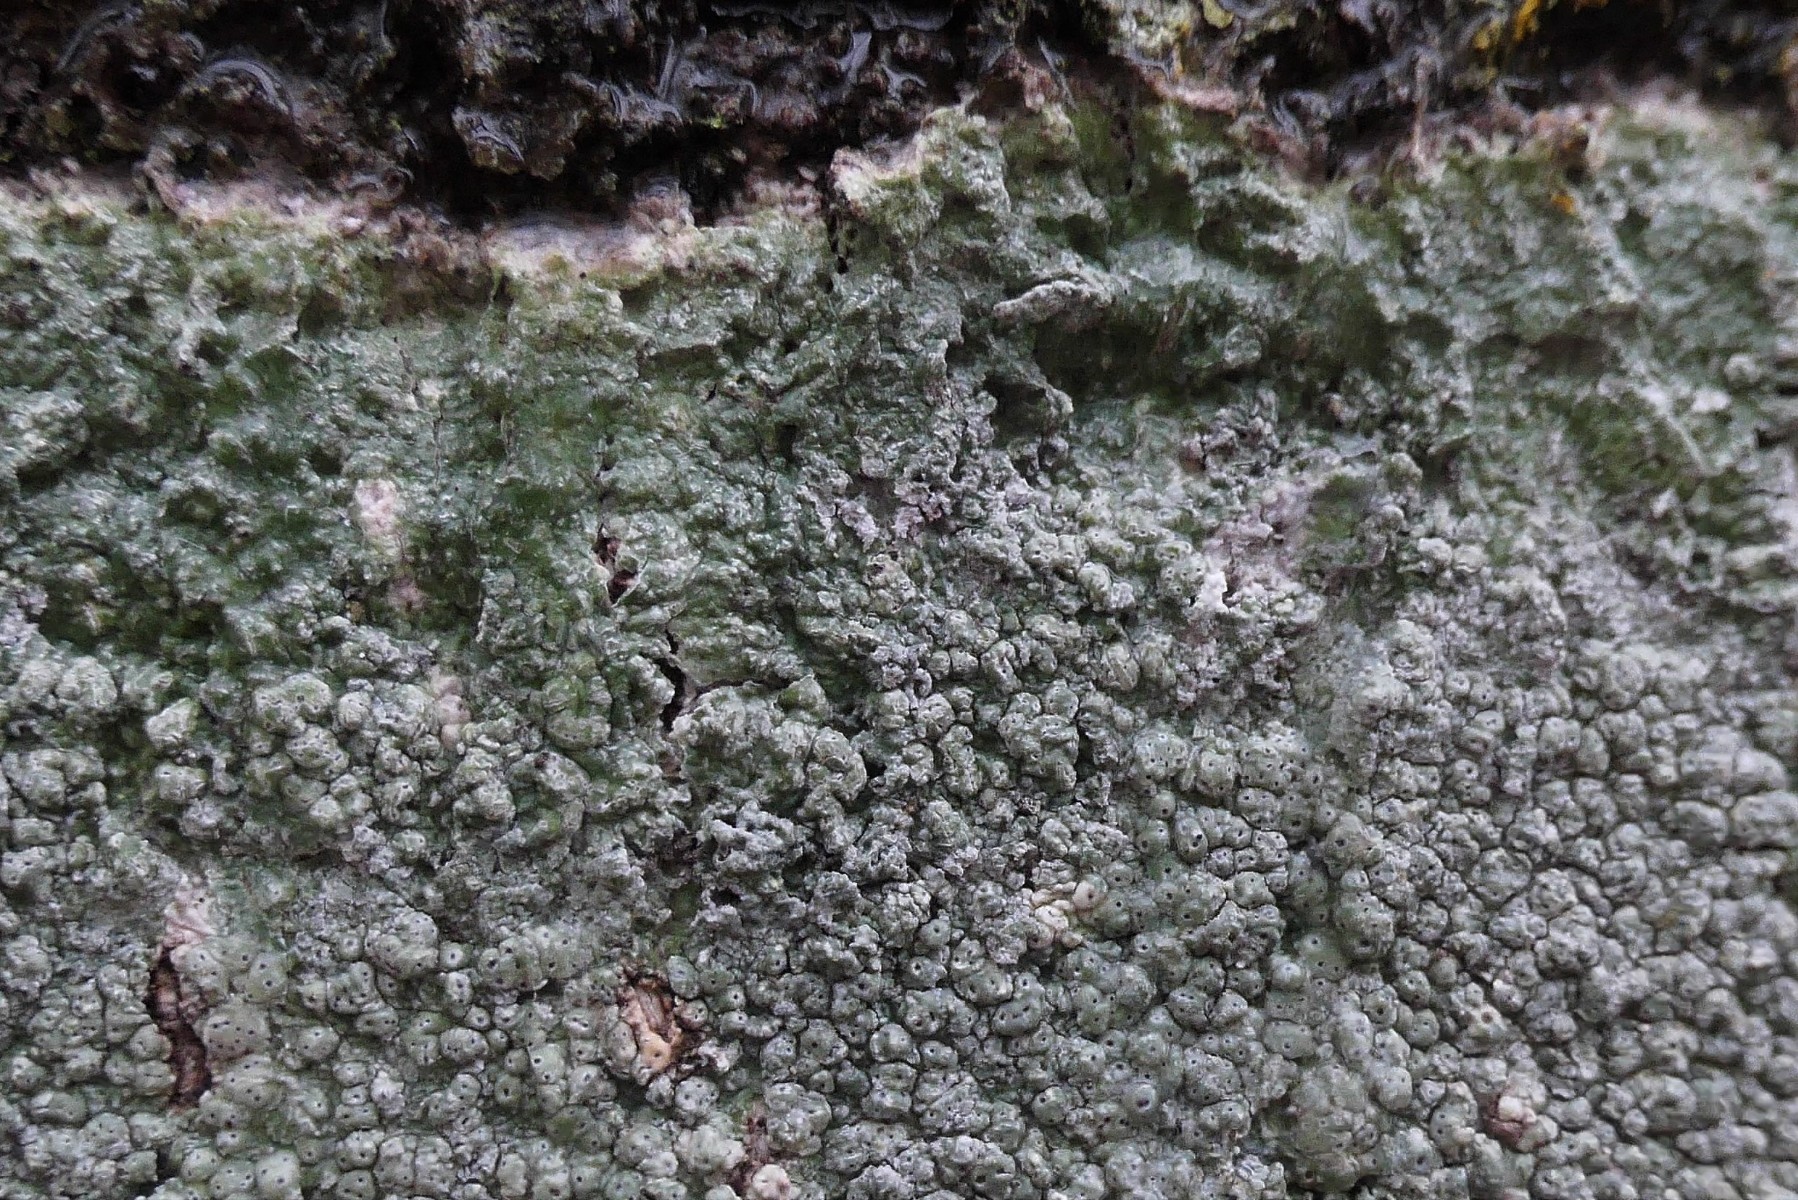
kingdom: Fungi
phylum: Ascomycota
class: Lecanoromycetes
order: Pertusariales
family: Pertusariaceae
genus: Pertusaria
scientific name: Pertusaria pertusa
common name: almindelig prikvortelav
